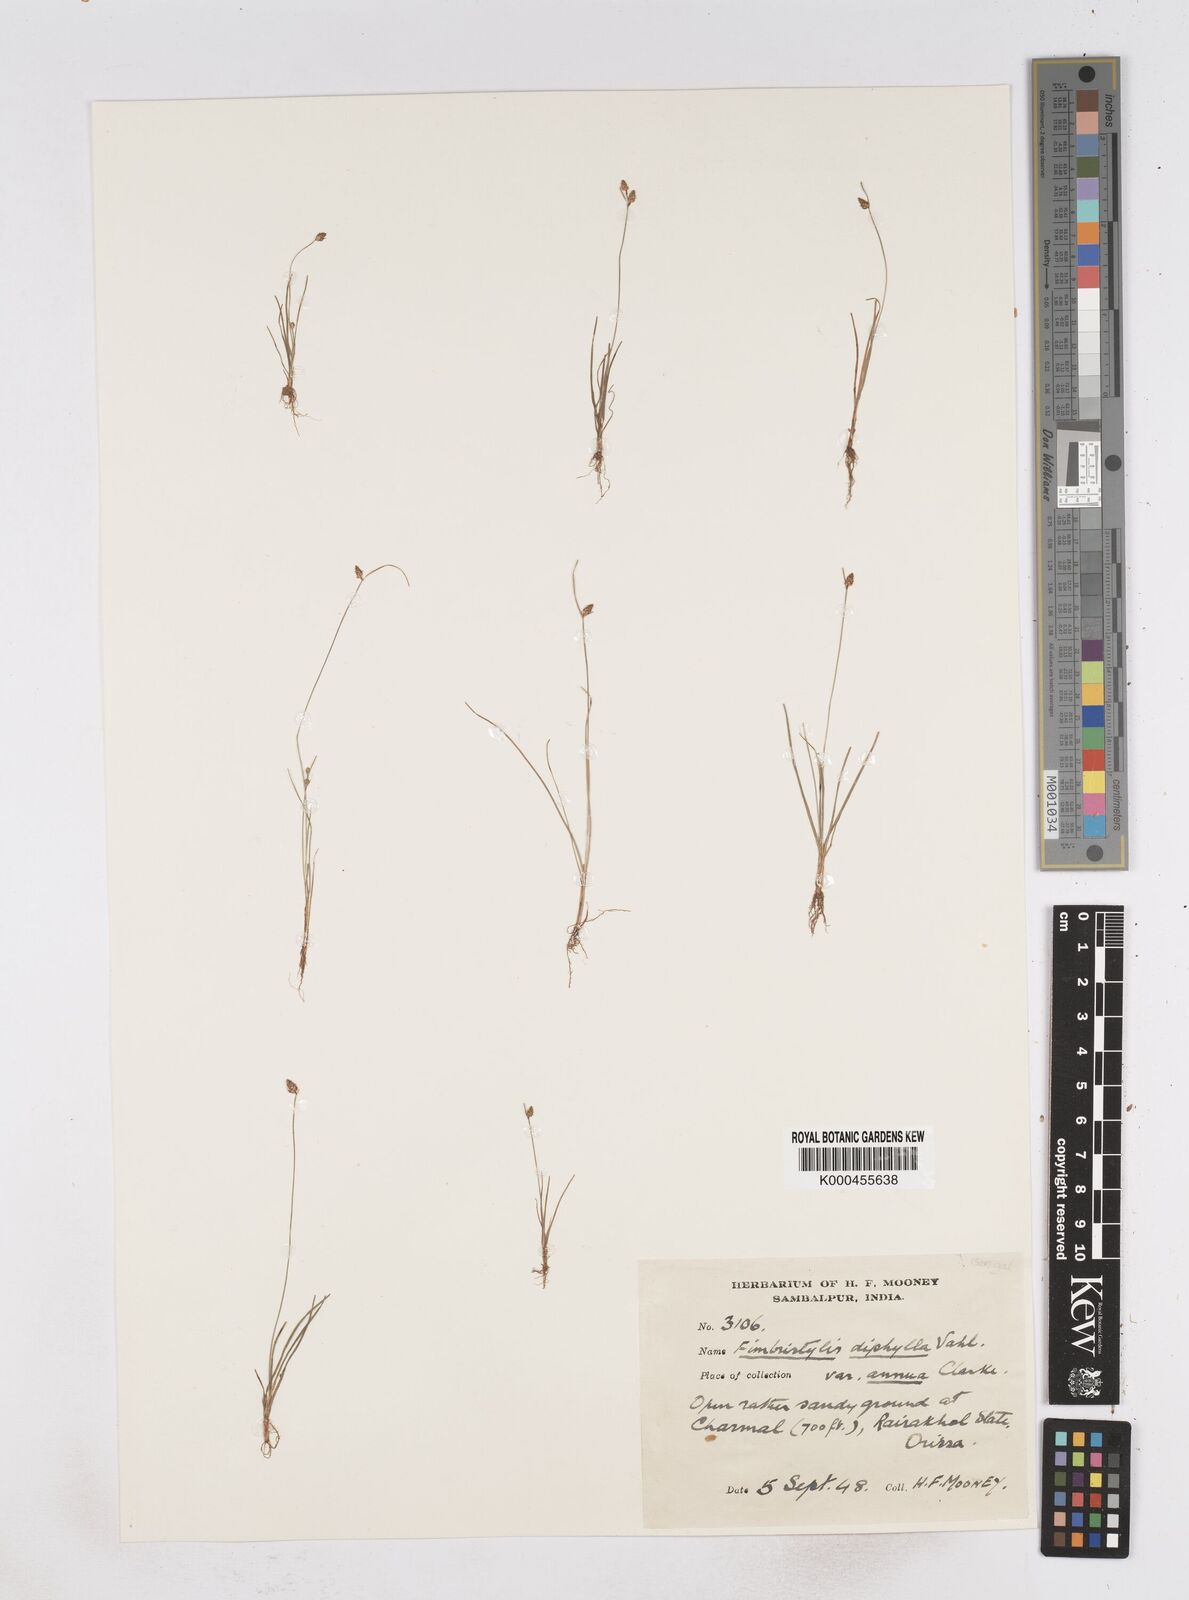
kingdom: Plantae
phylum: Tracheophyta
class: Liliopsida
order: Poales
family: Cyperaceae
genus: Fimbristylis
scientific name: Fimbristylis dichotoma
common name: Forked fimbry
